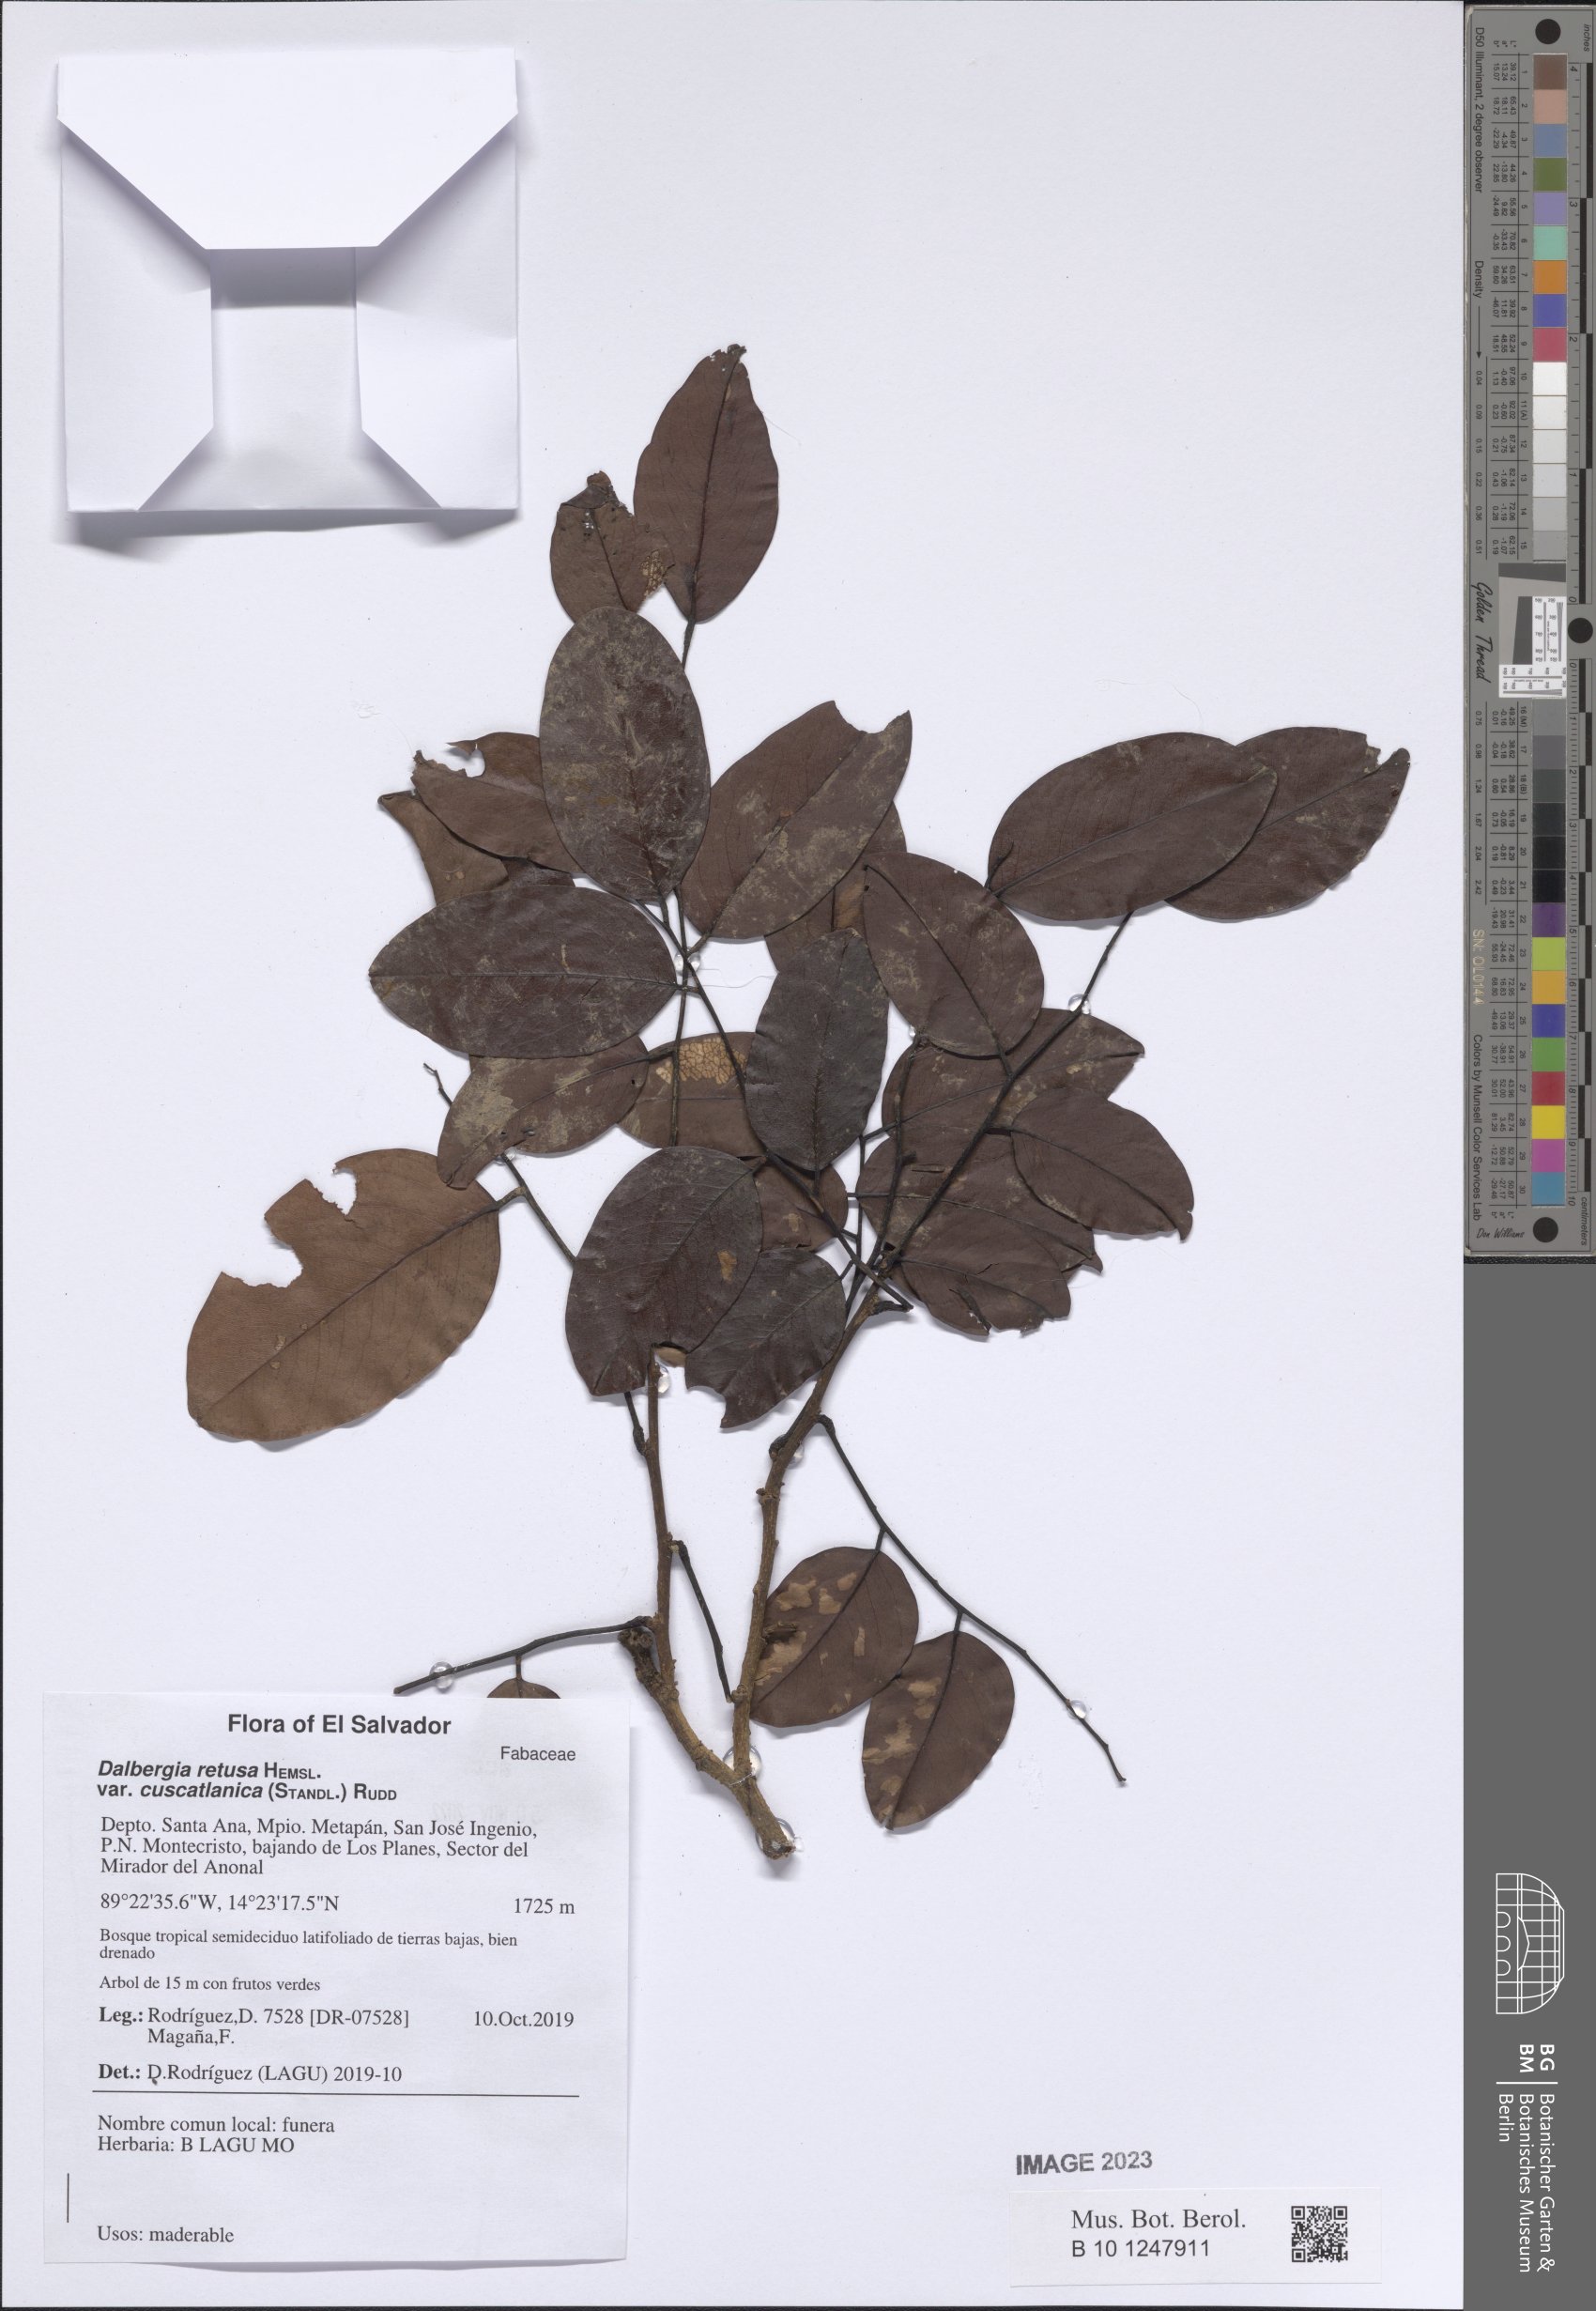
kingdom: Plantae
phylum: Tracheophyta
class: Magnoliopsida
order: Fabales
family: Fabaceae
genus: Dalbergia
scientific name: Dalbergia retusa
